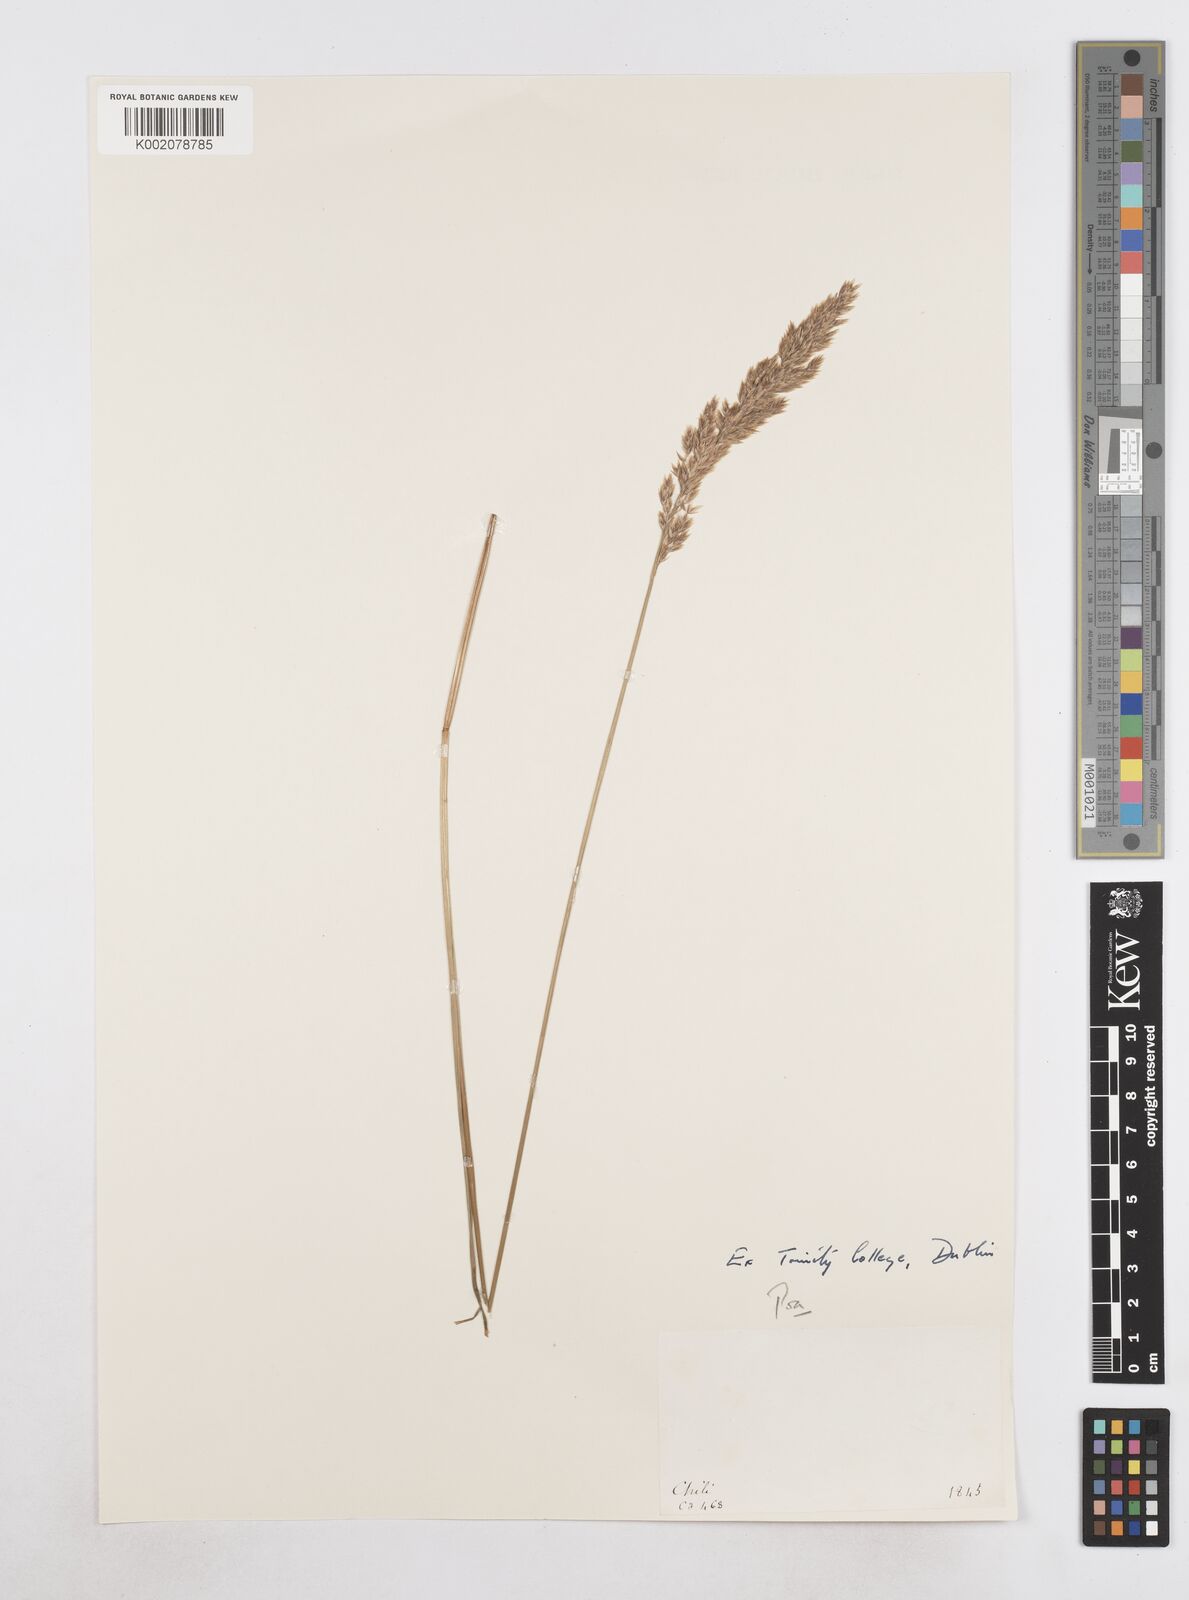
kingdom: Plantae
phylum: Tracheophyta
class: Liliopsida
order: Poales
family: Poaceae
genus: Poa
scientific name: Poa
